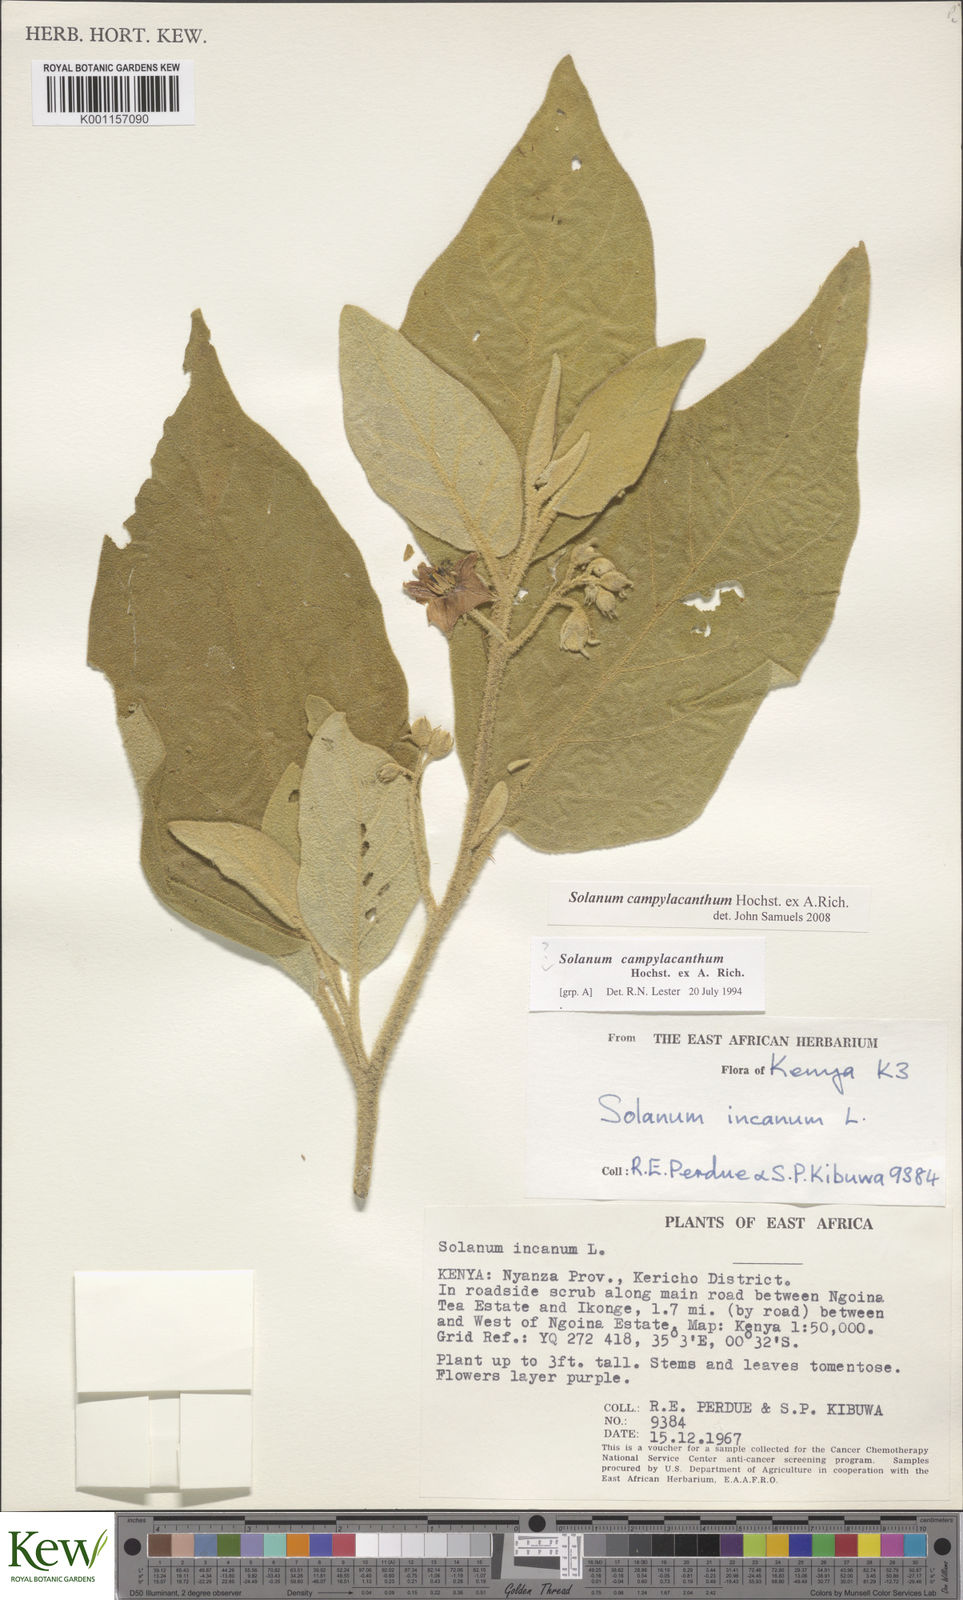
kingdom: Plantae
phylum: Tracheophyta
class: Magnoliopsida
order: Solanales
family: Solanaceae
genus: Solanum
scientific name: Solanum campylacanthum
